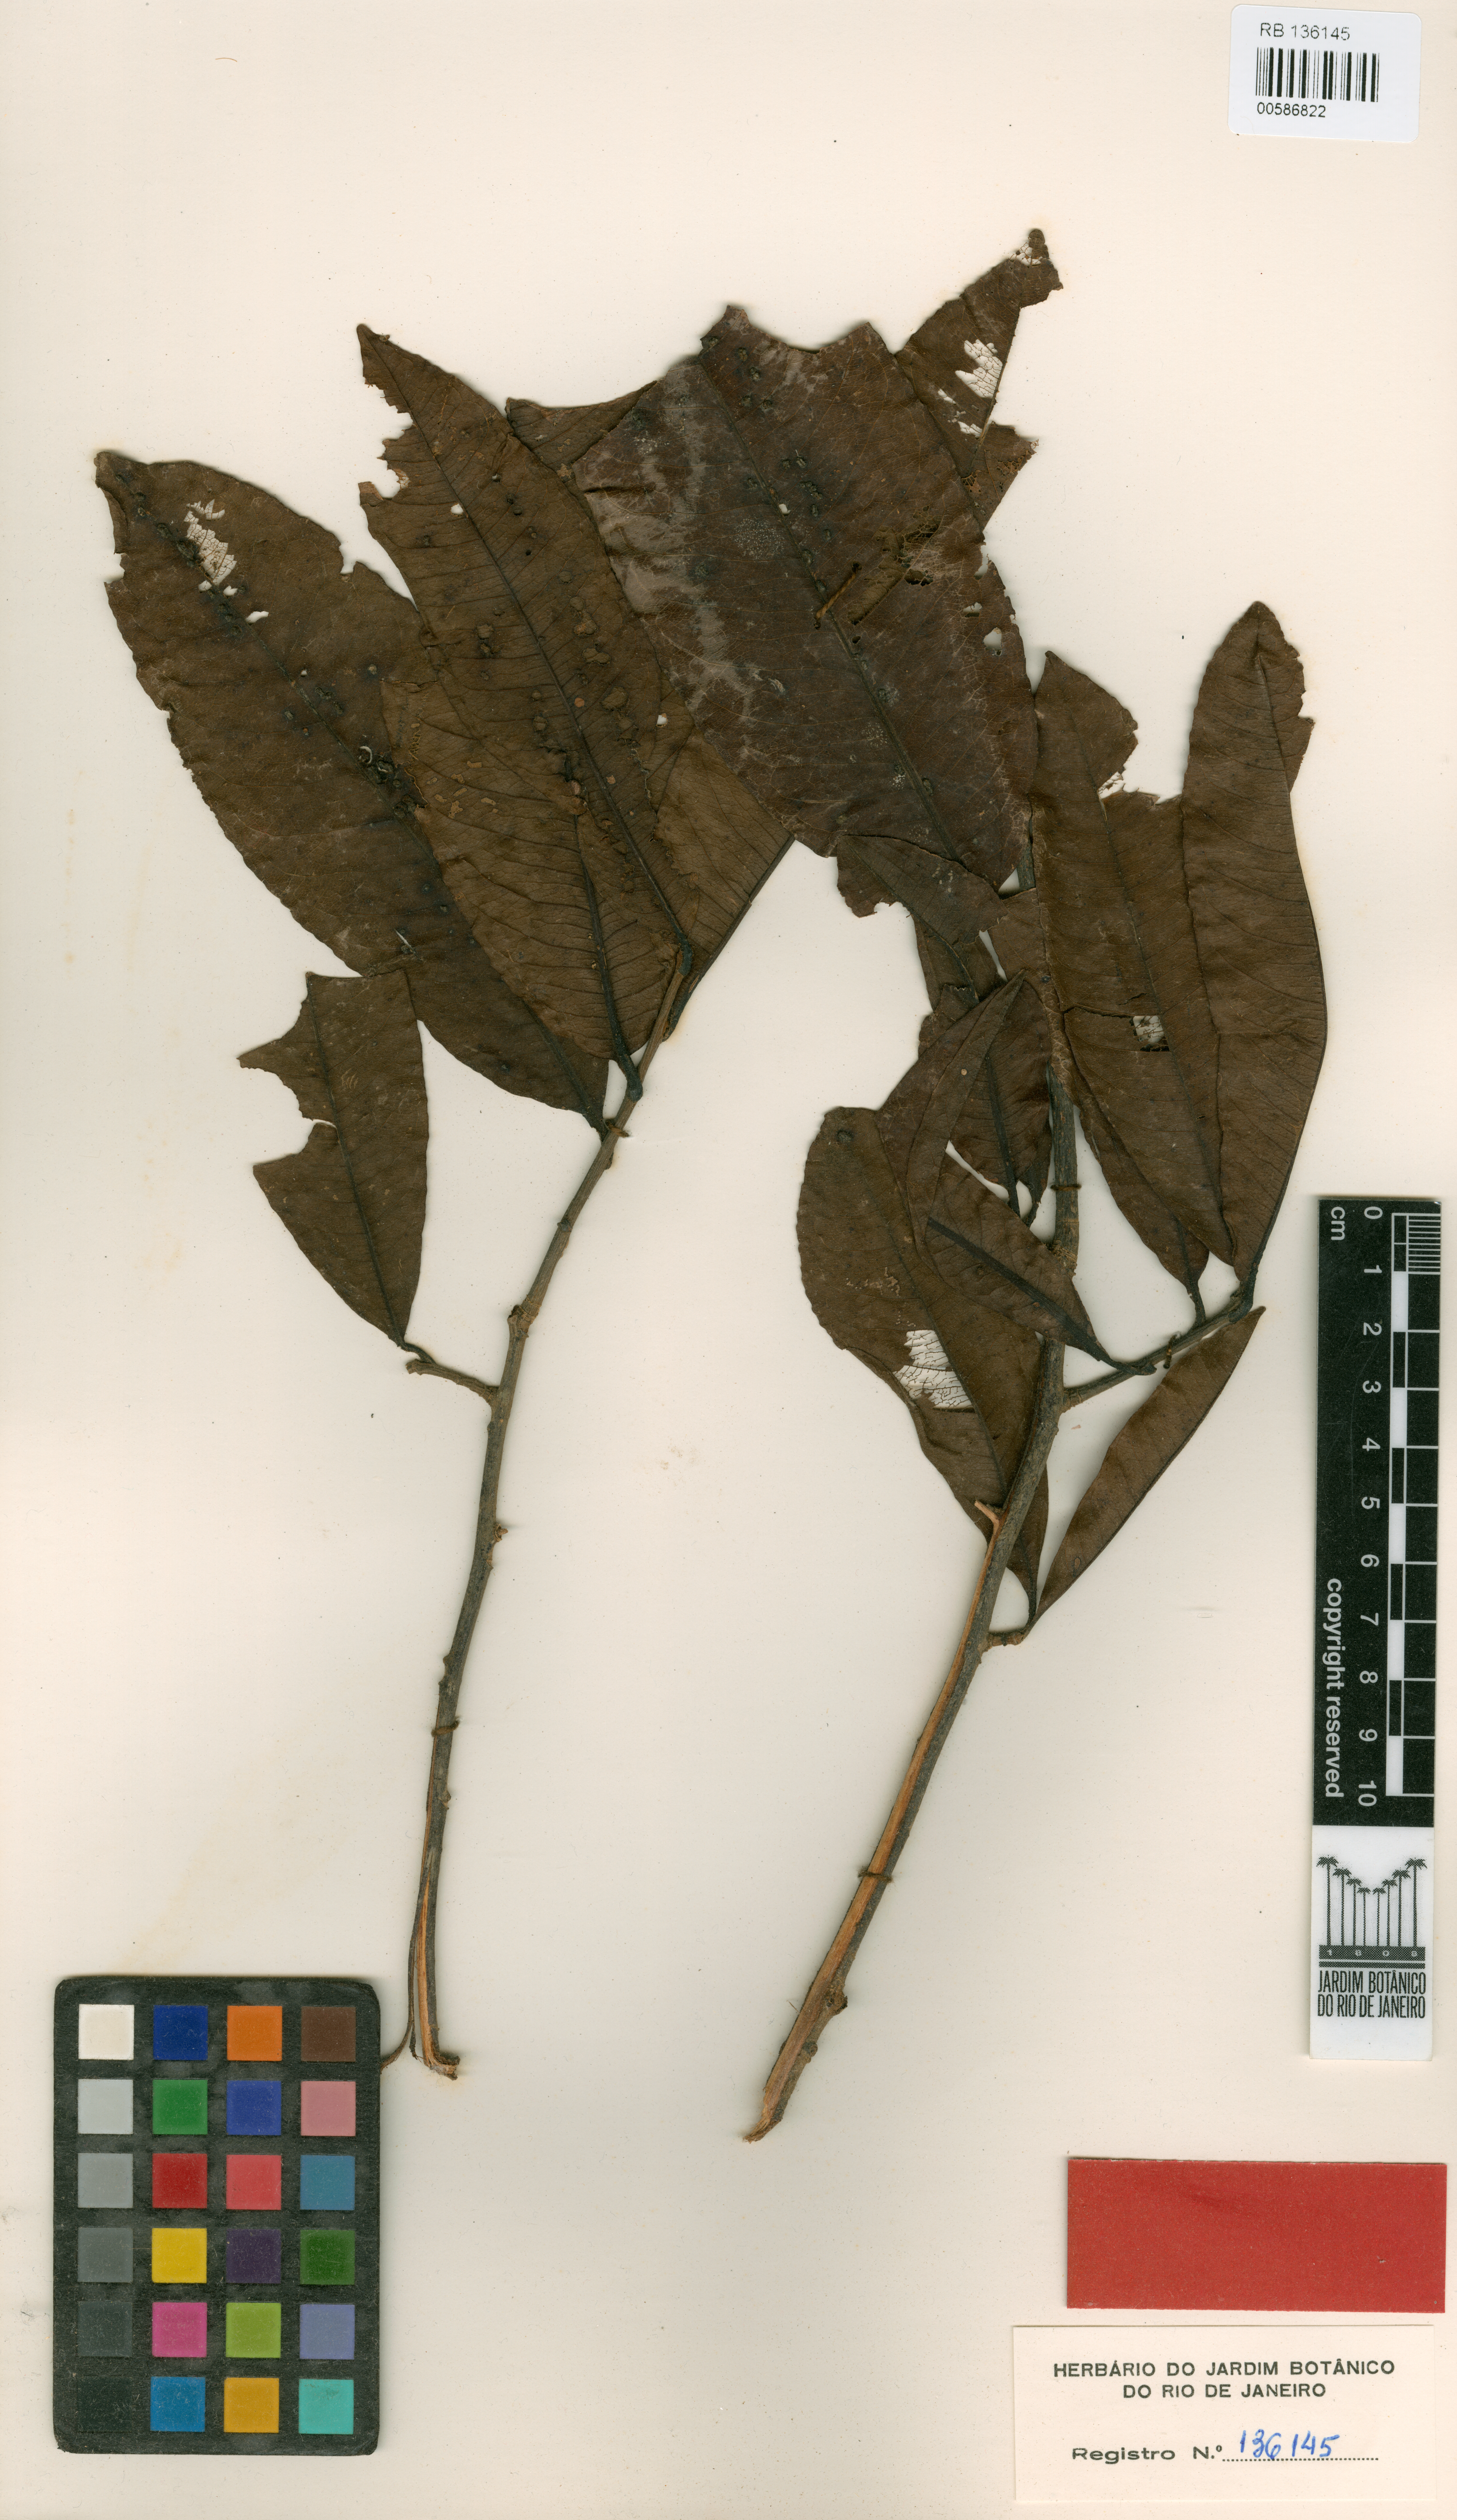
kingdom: Plantae
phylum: Tracheophyta
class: Magnoliopsida
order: Ericales
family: Lecythidaceae
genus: Couroupita
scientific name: Couroupita guianensis
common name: Cannonball tree
